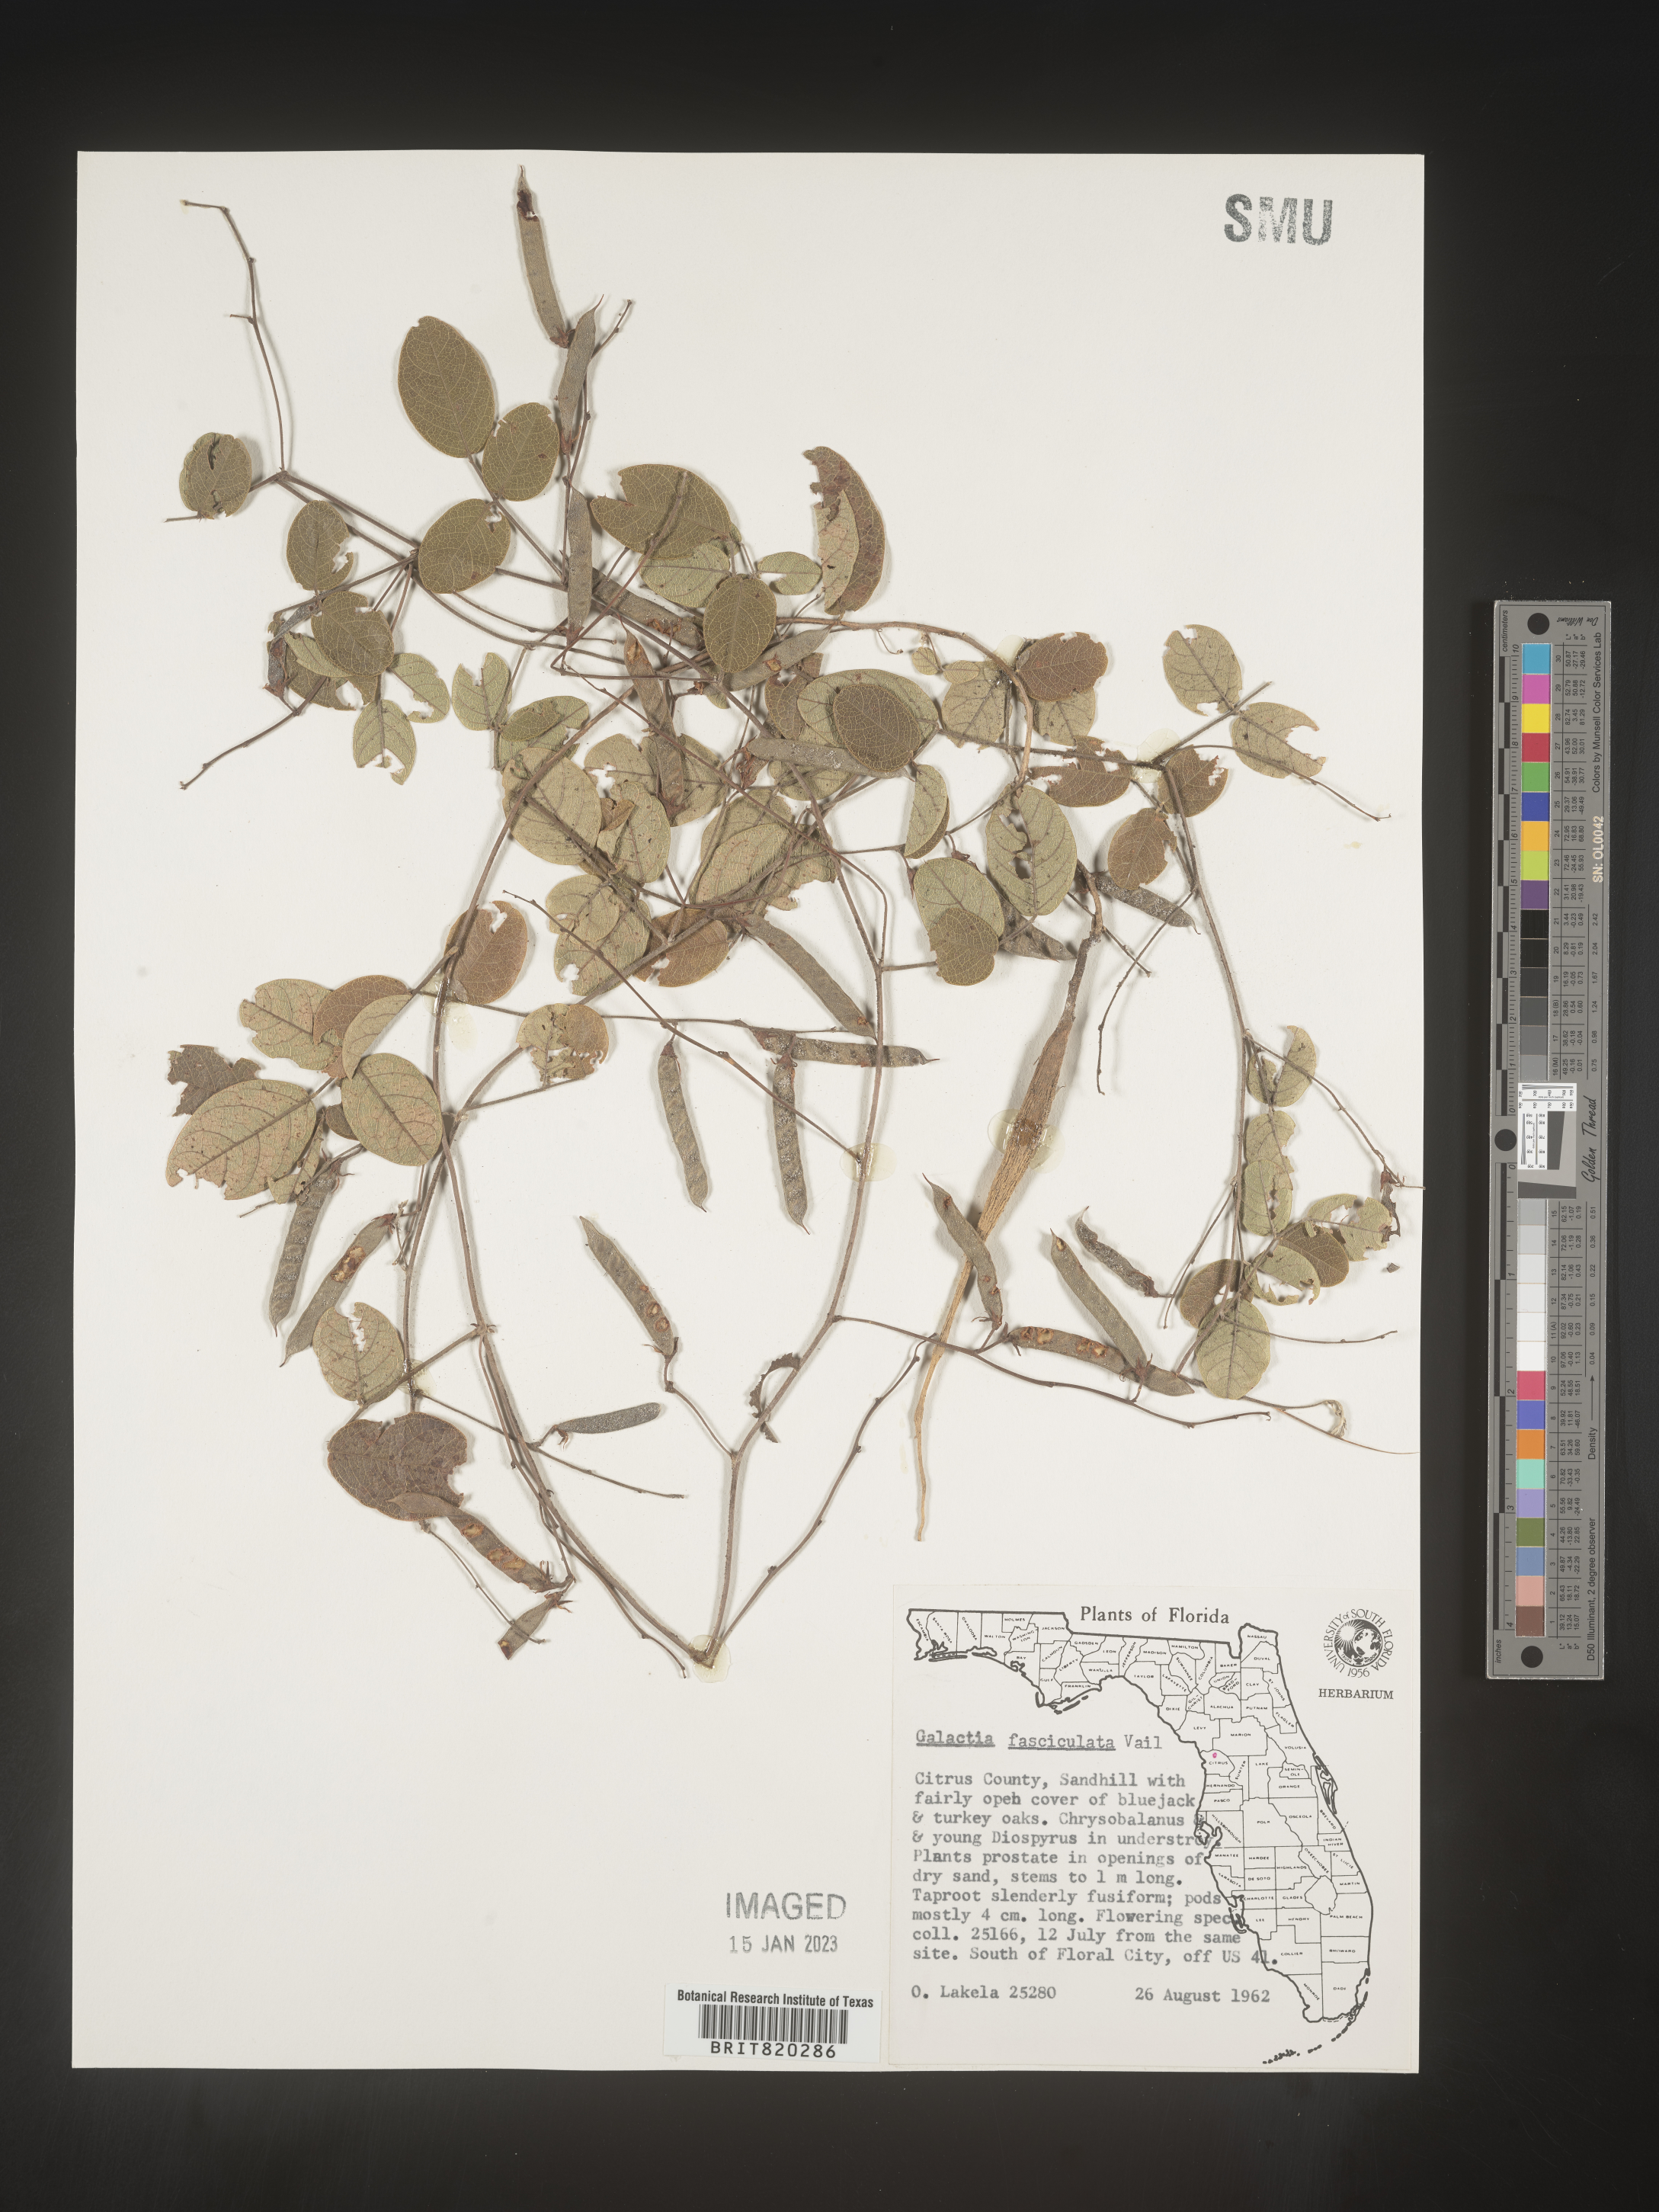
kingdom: Plantae
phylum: Tracheophyta
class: Magnoliopsida
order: Fabales
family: Fabaceae
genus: Galactia
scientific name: Galactia floridana
